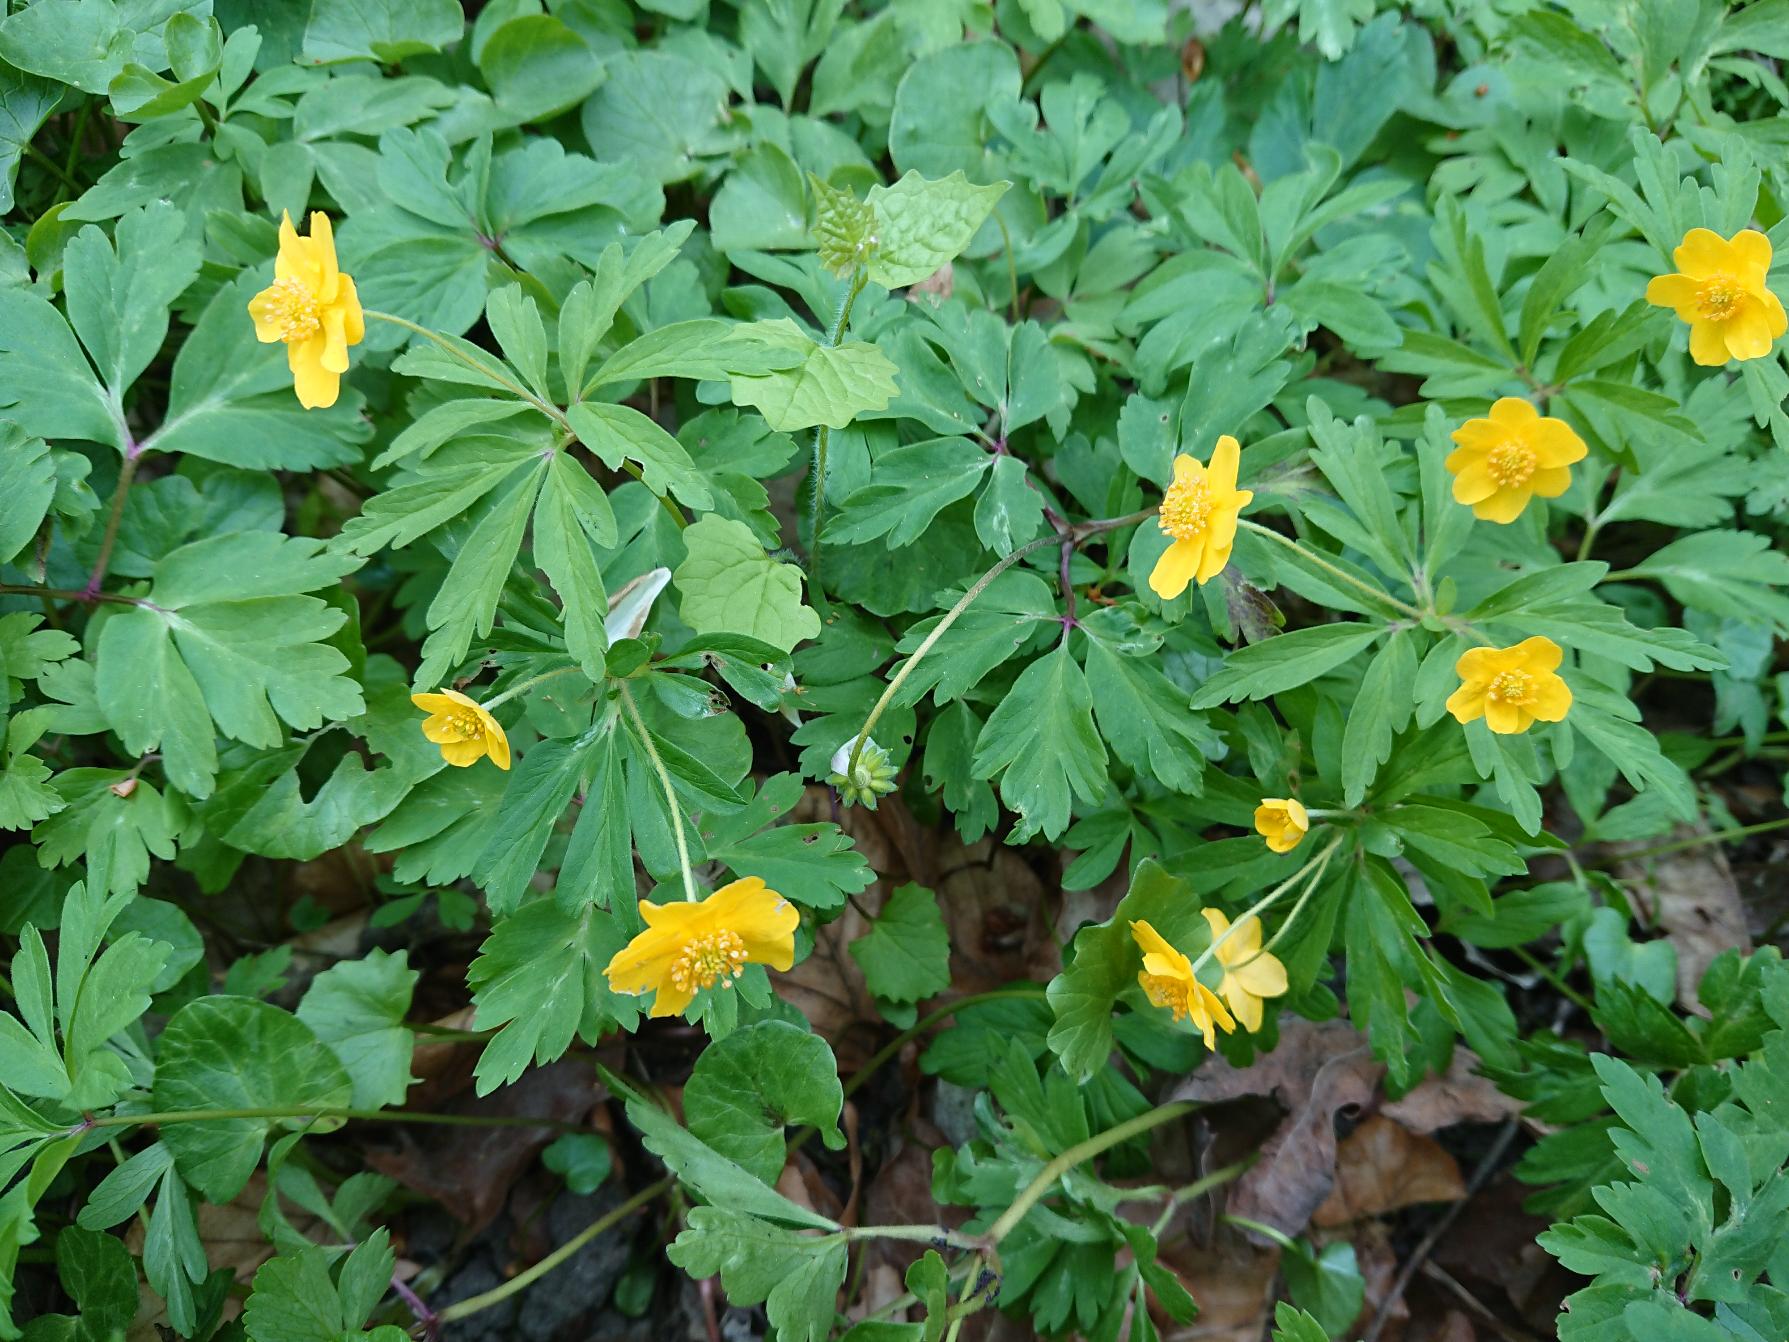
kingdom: Plantae
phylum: Tracheophyta
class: Magnoliopsida
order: Ranunculales
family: Ranunculaceae
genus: Anemone
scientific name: Anemone ranunculoides
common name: Gul anemone
